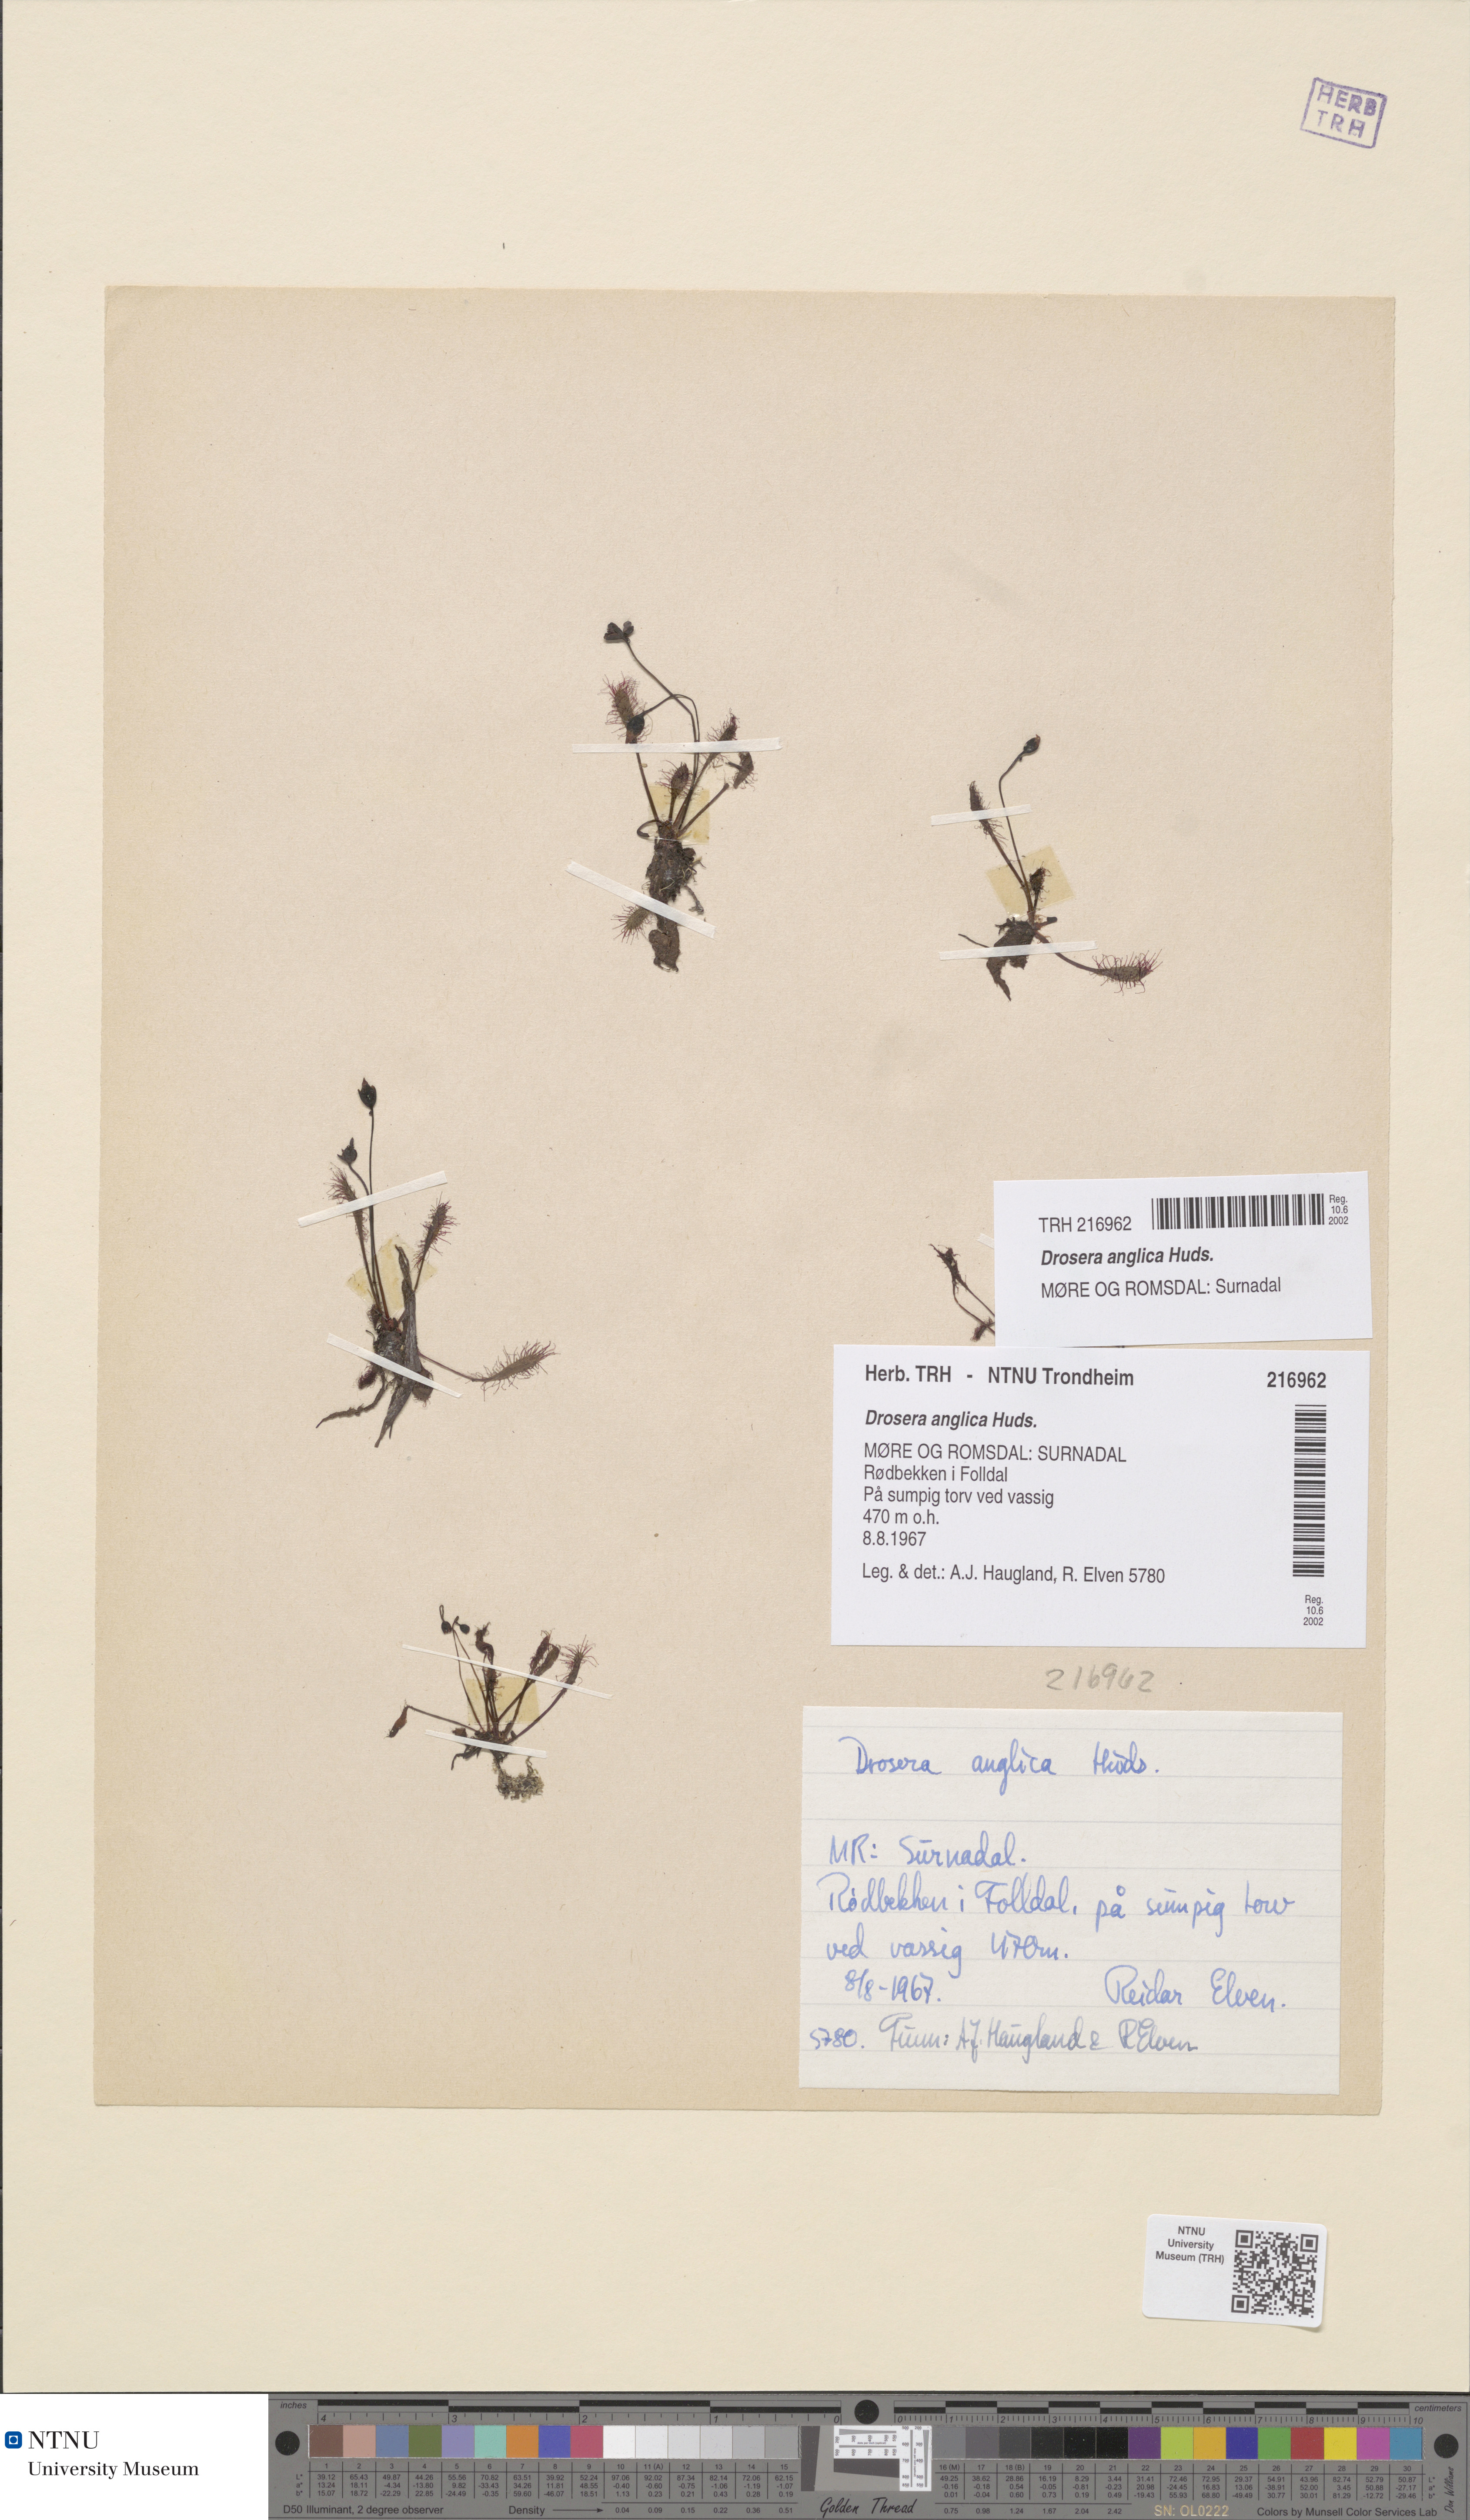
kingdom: Plantae
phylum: Tracheophyta
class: Magnoliopsida
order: Caryophyllales
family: Droseraceae
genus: Drosera
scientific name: Drosera anglica
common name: Great sundew
